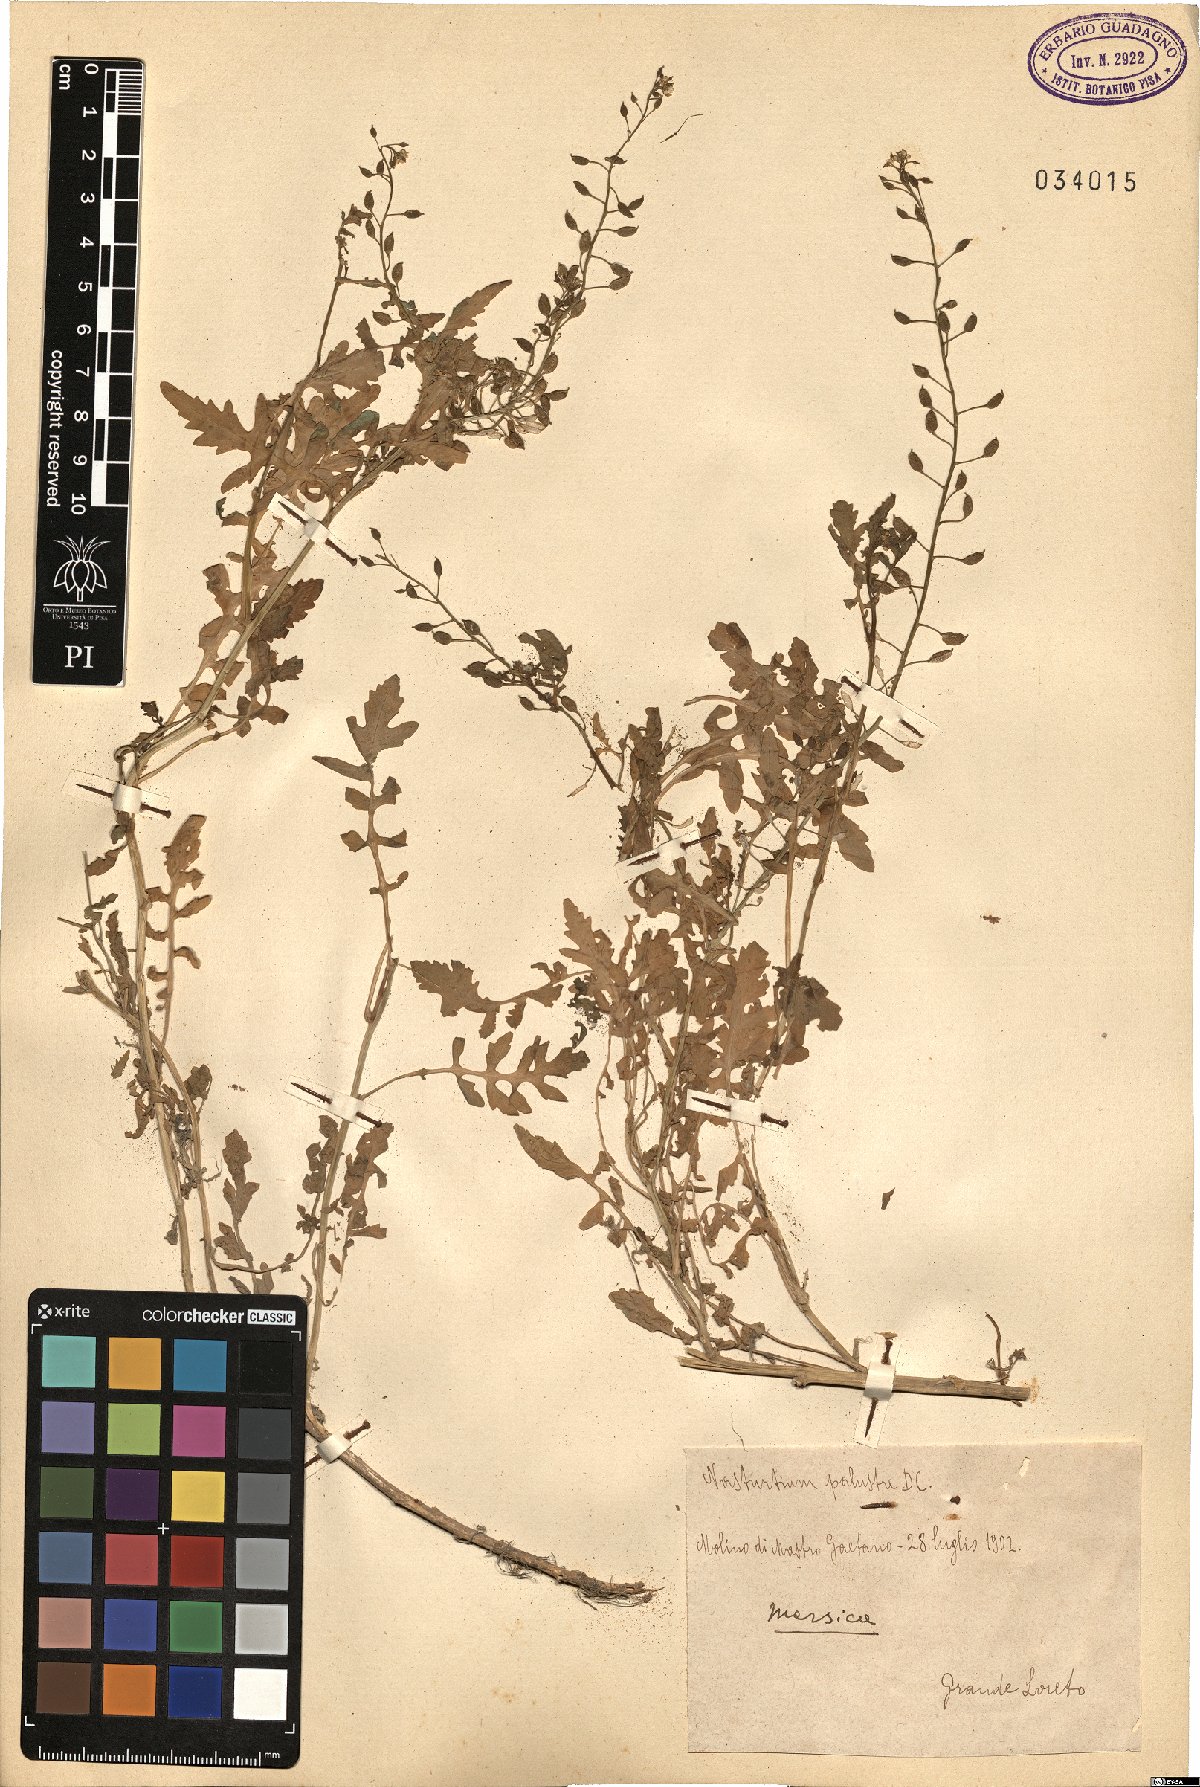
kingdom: Plantae
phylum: Tracheophyta
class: Magnoliopsida
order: Brassicales
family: Brassicaceae
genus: Rorippa
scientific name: Rorippa palustris
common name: Marsh yellow-cress
